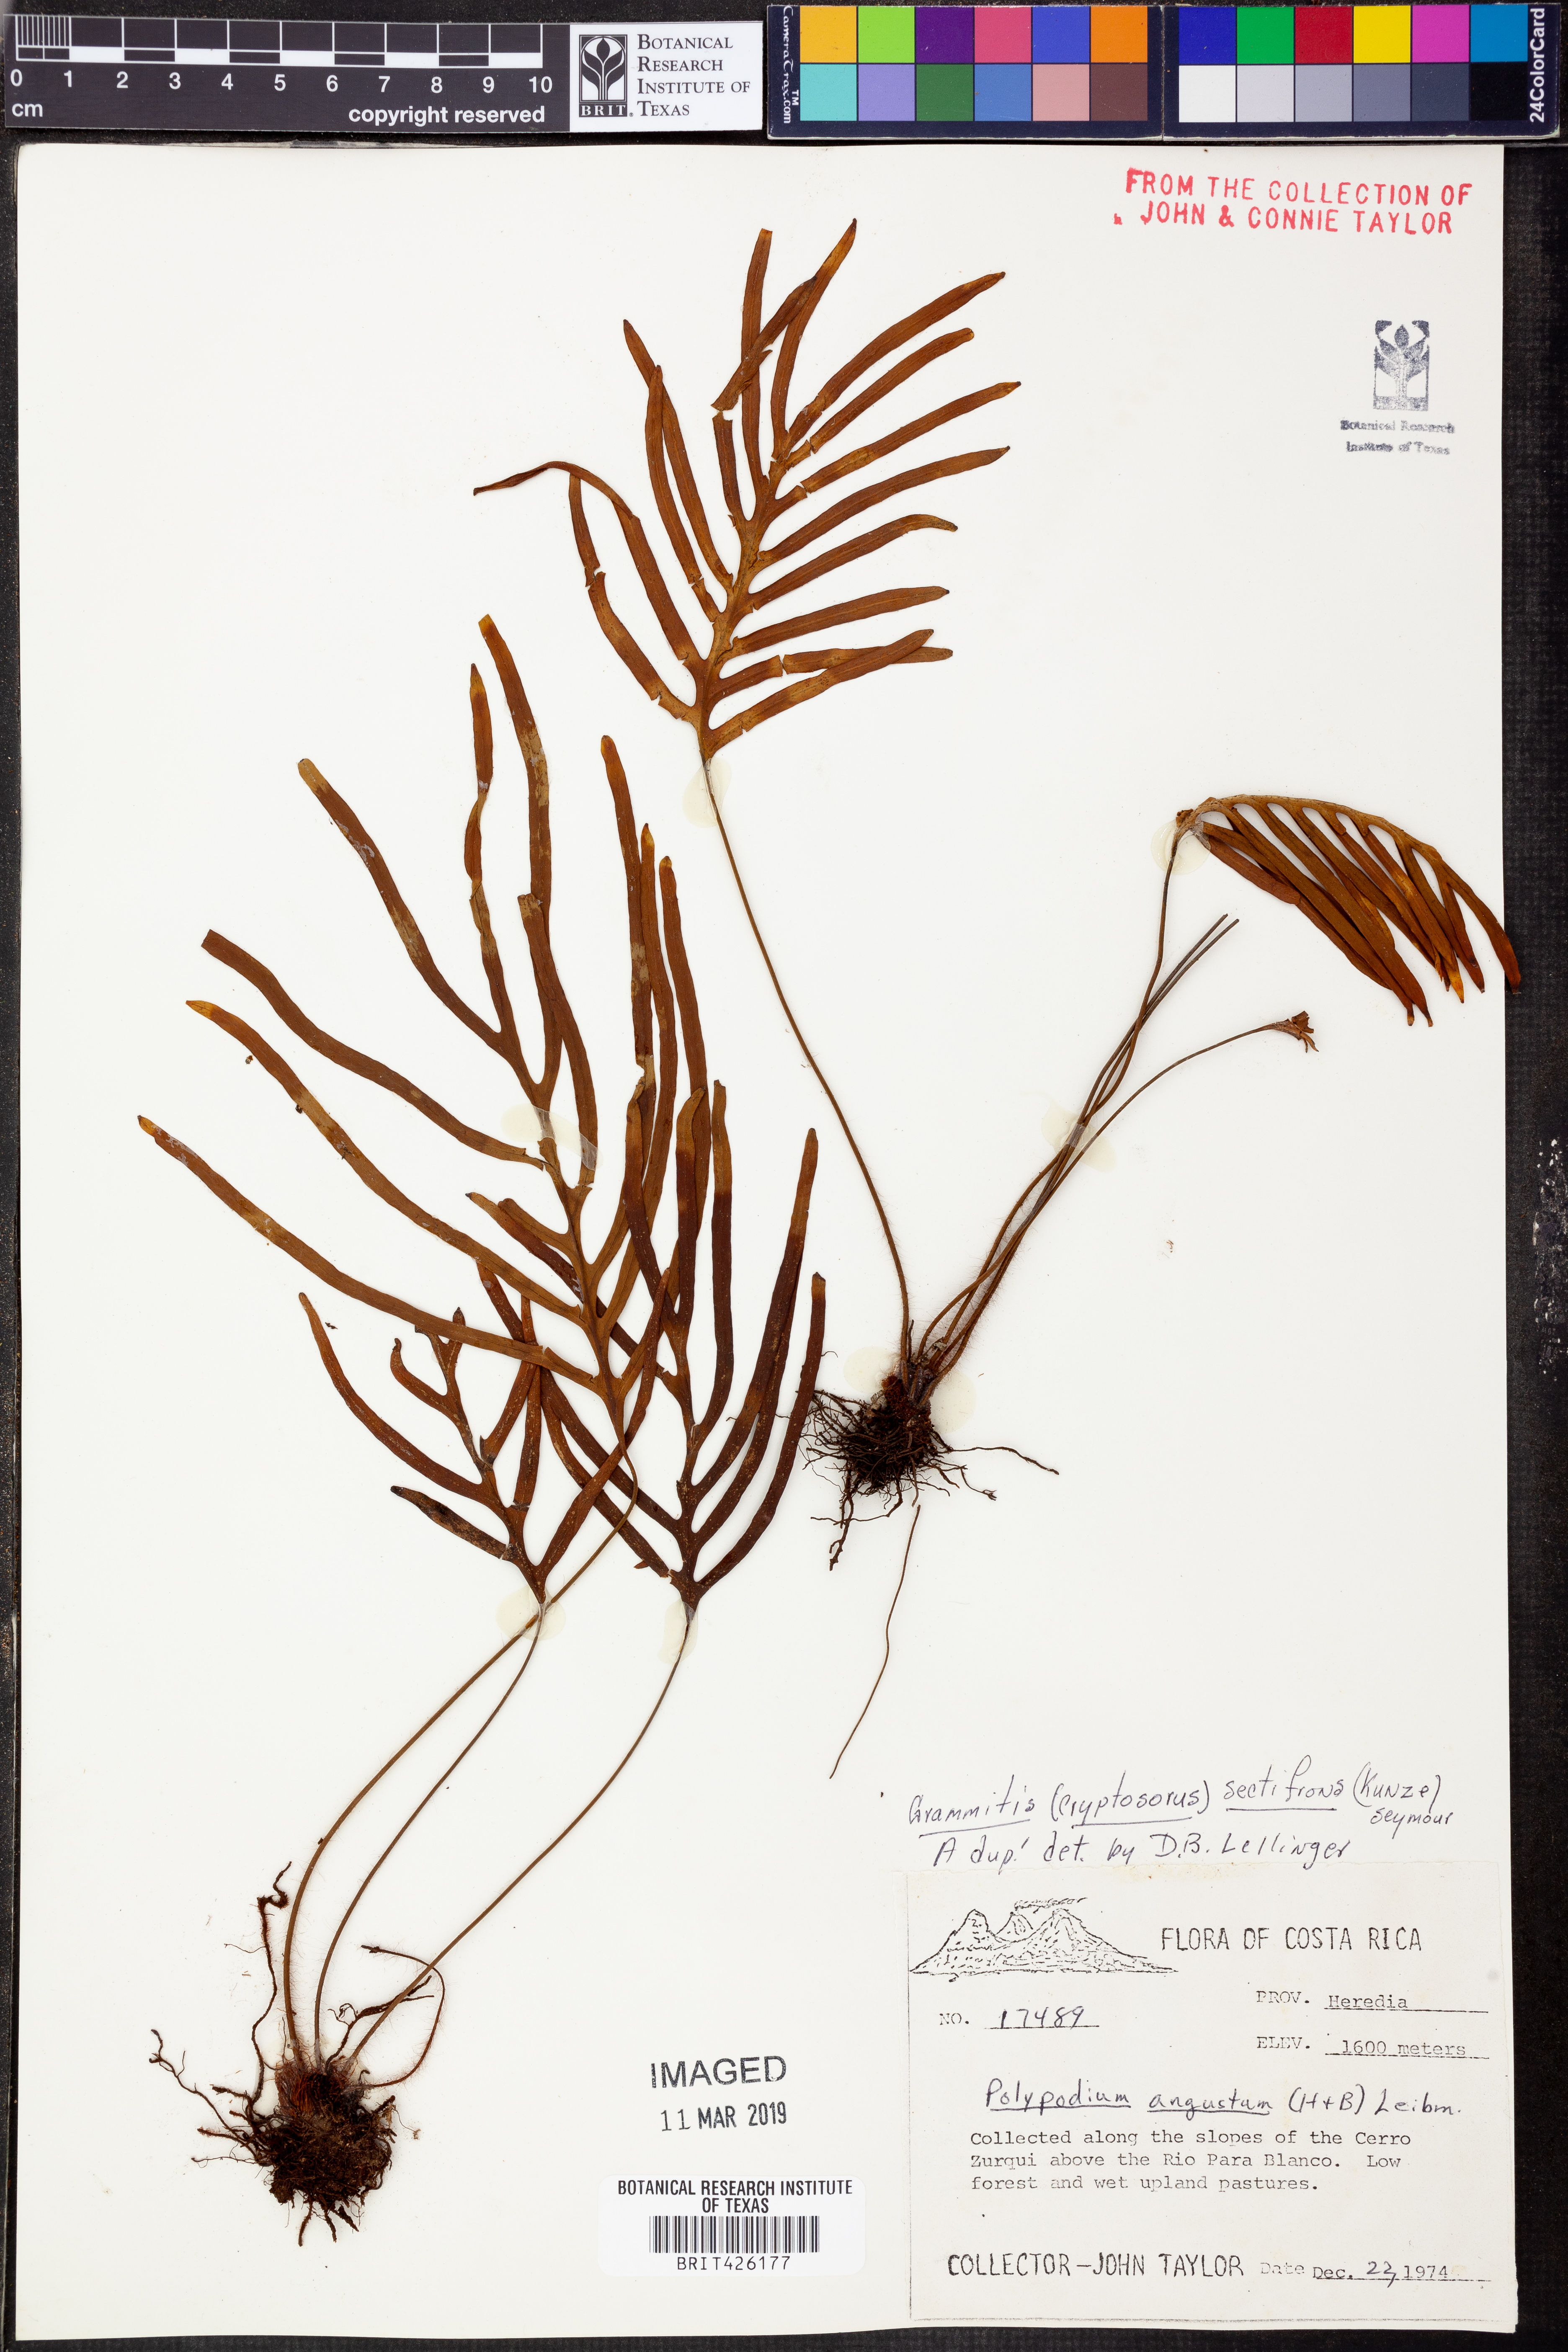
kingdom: Plantae
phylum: Tracheophyta
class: Polypodiopsida
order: Polypodiales
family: Polypodiaceae
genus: Enterosora
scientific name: Enterosora sectifrons
